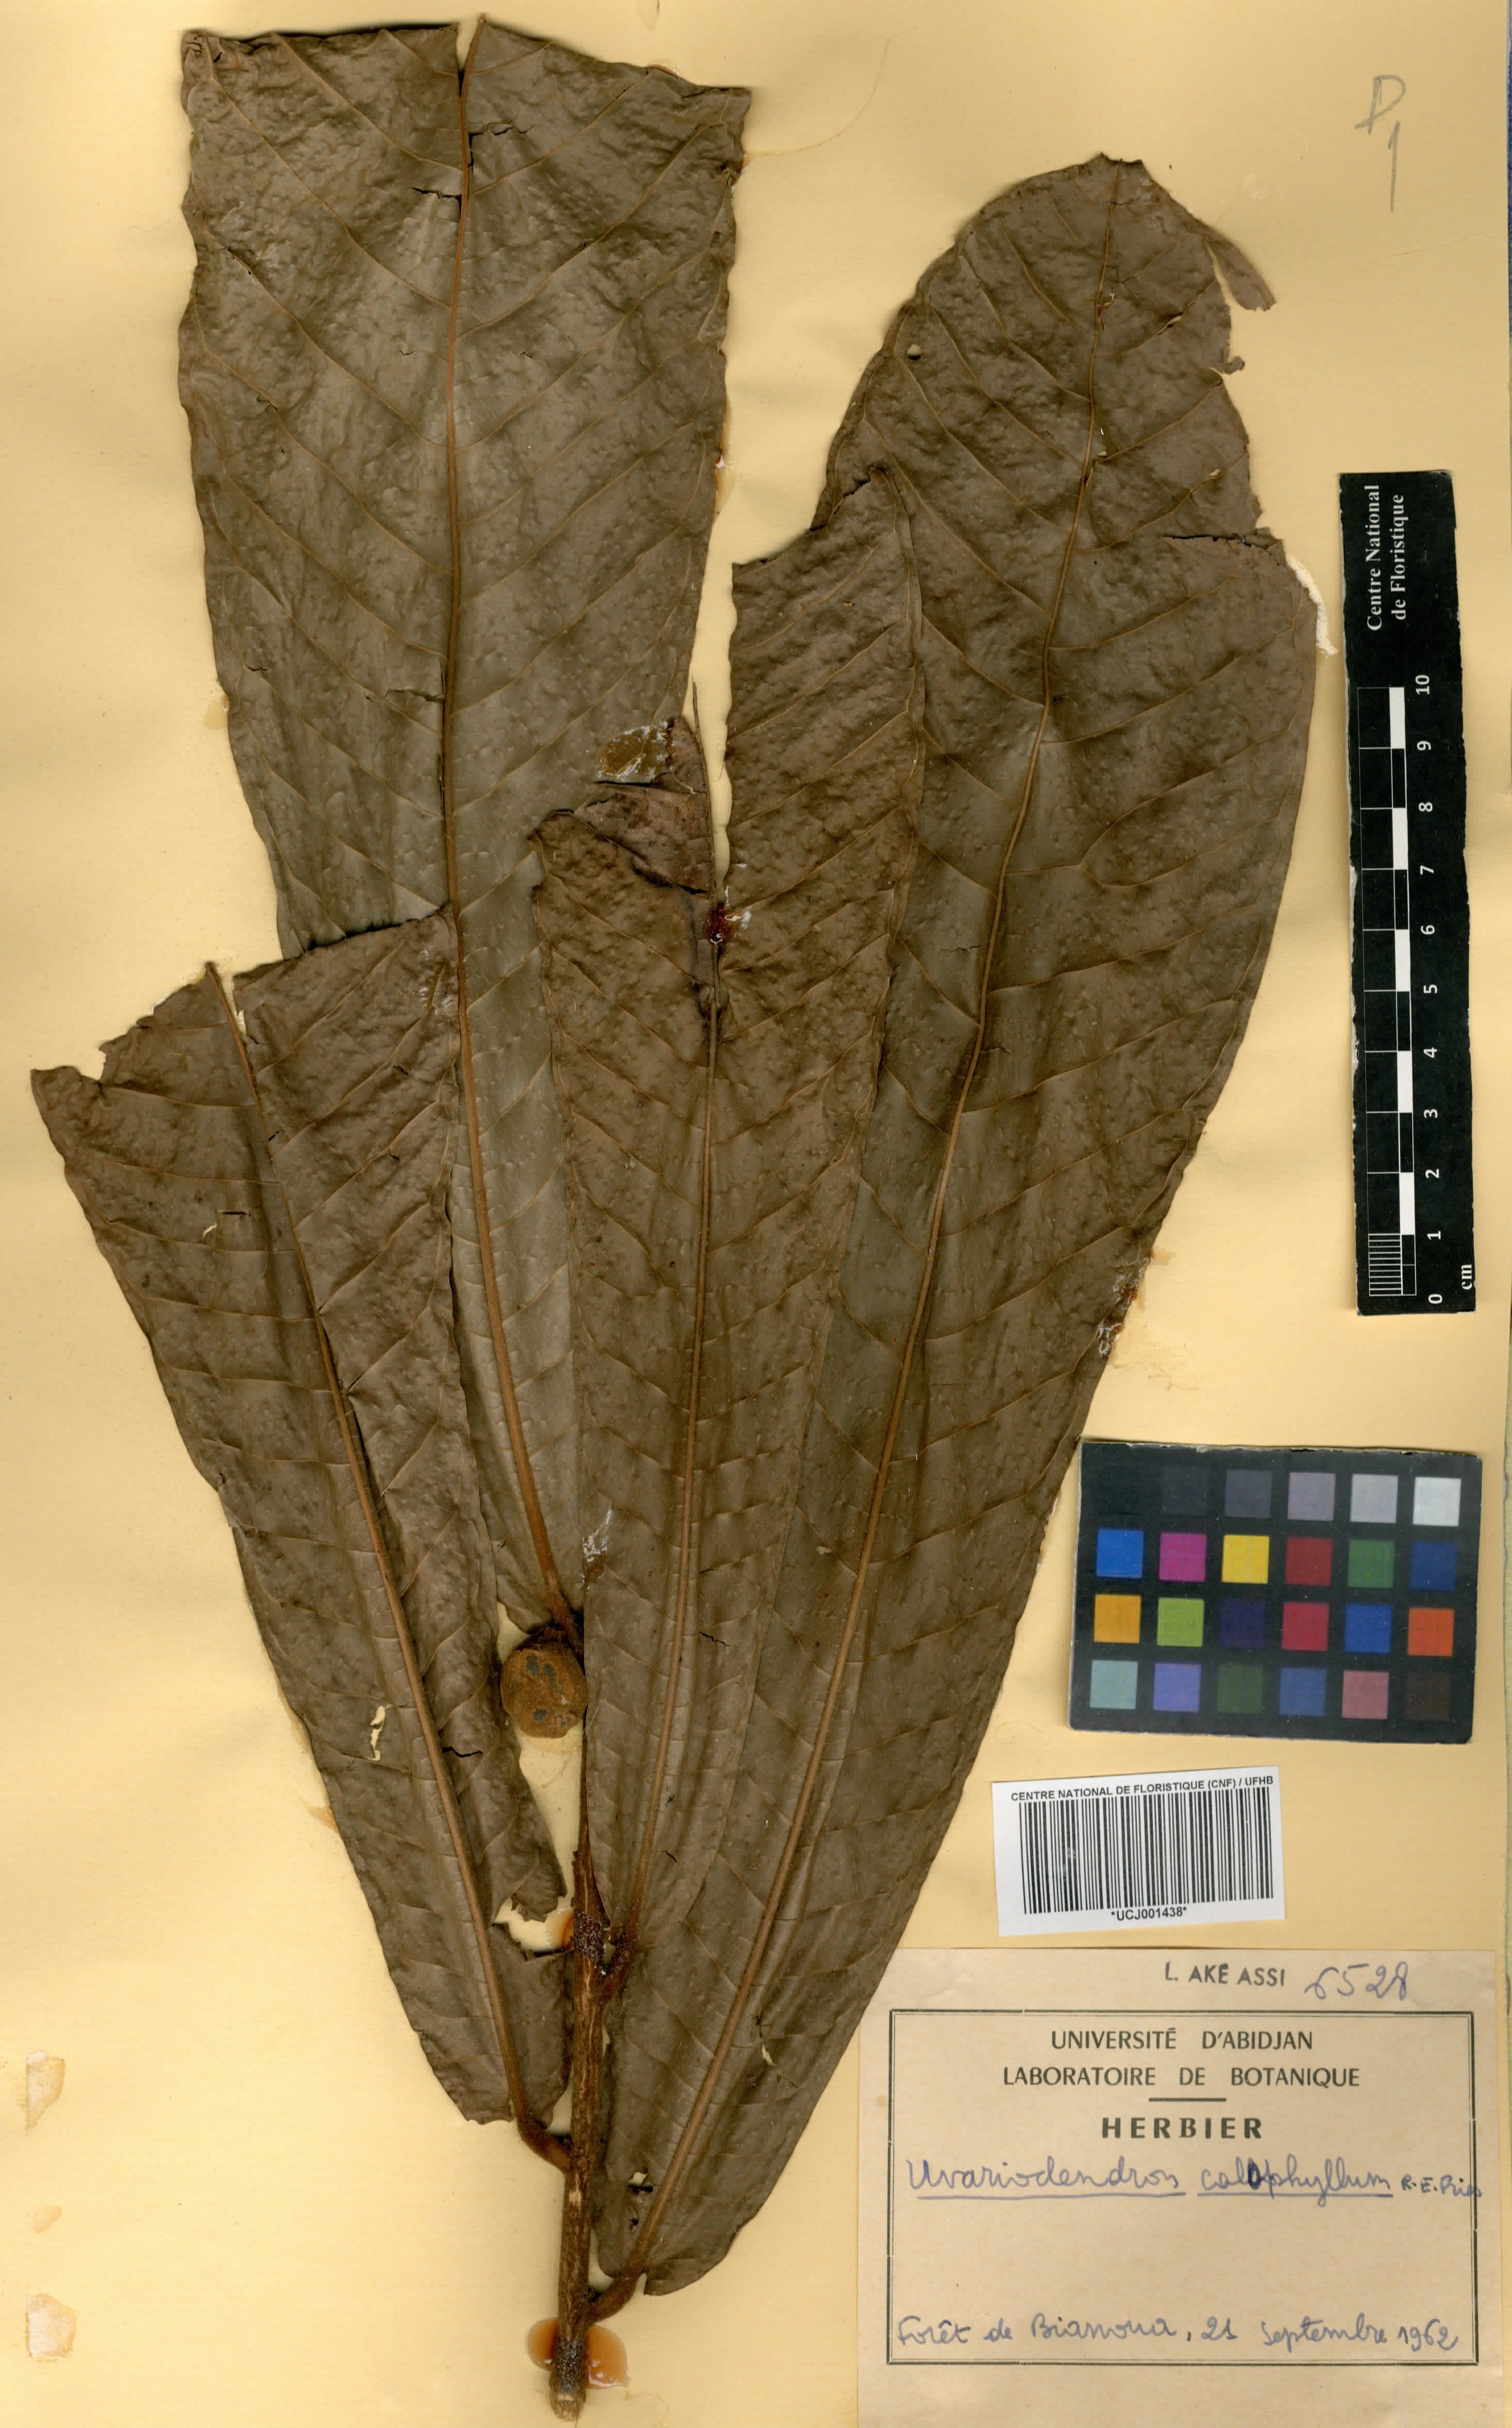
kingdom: Plantae
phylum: Tracheophyta
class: Magnoliopsida
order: Magnoliales
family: Annonaceae
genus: Uvariodendron
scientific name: Uvariodendron calophyllum
